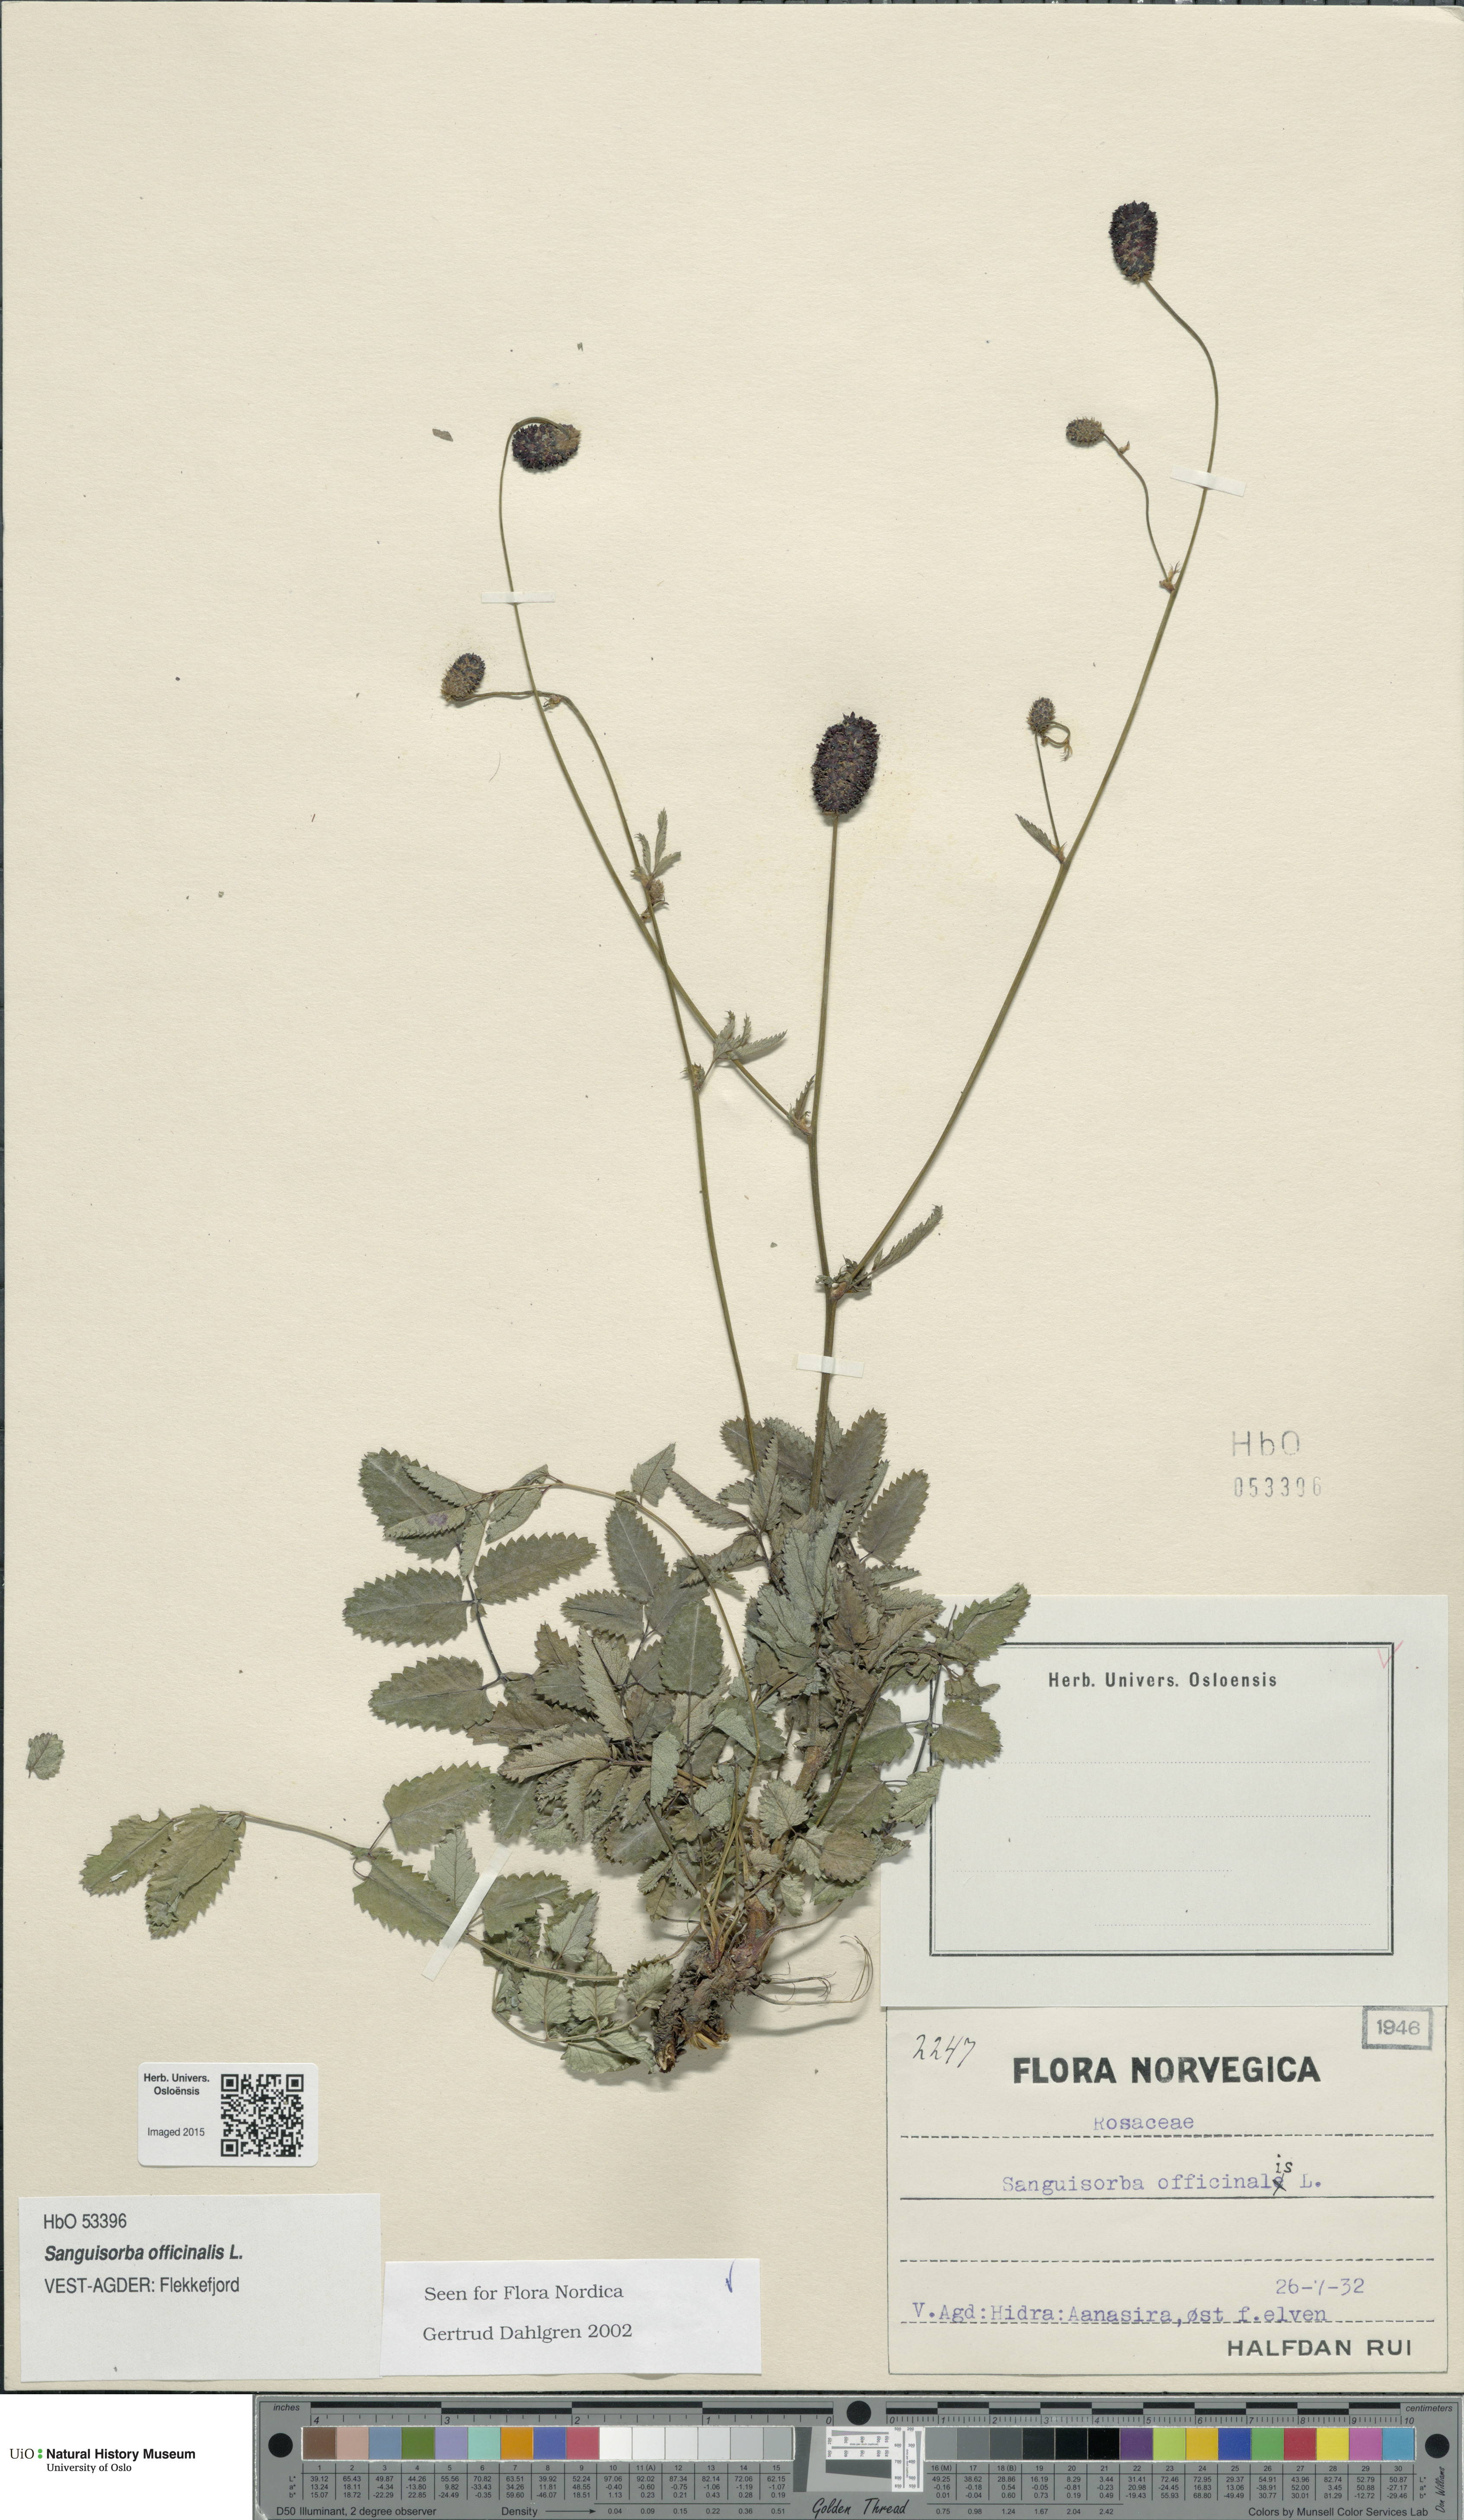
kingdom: Plantae
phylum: Tracheophyta
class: Magnoliopsida
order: Rosales
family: Rosaceae
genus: Sanguisorba
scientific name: Sanguisorba officinalis
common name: Great burnet
